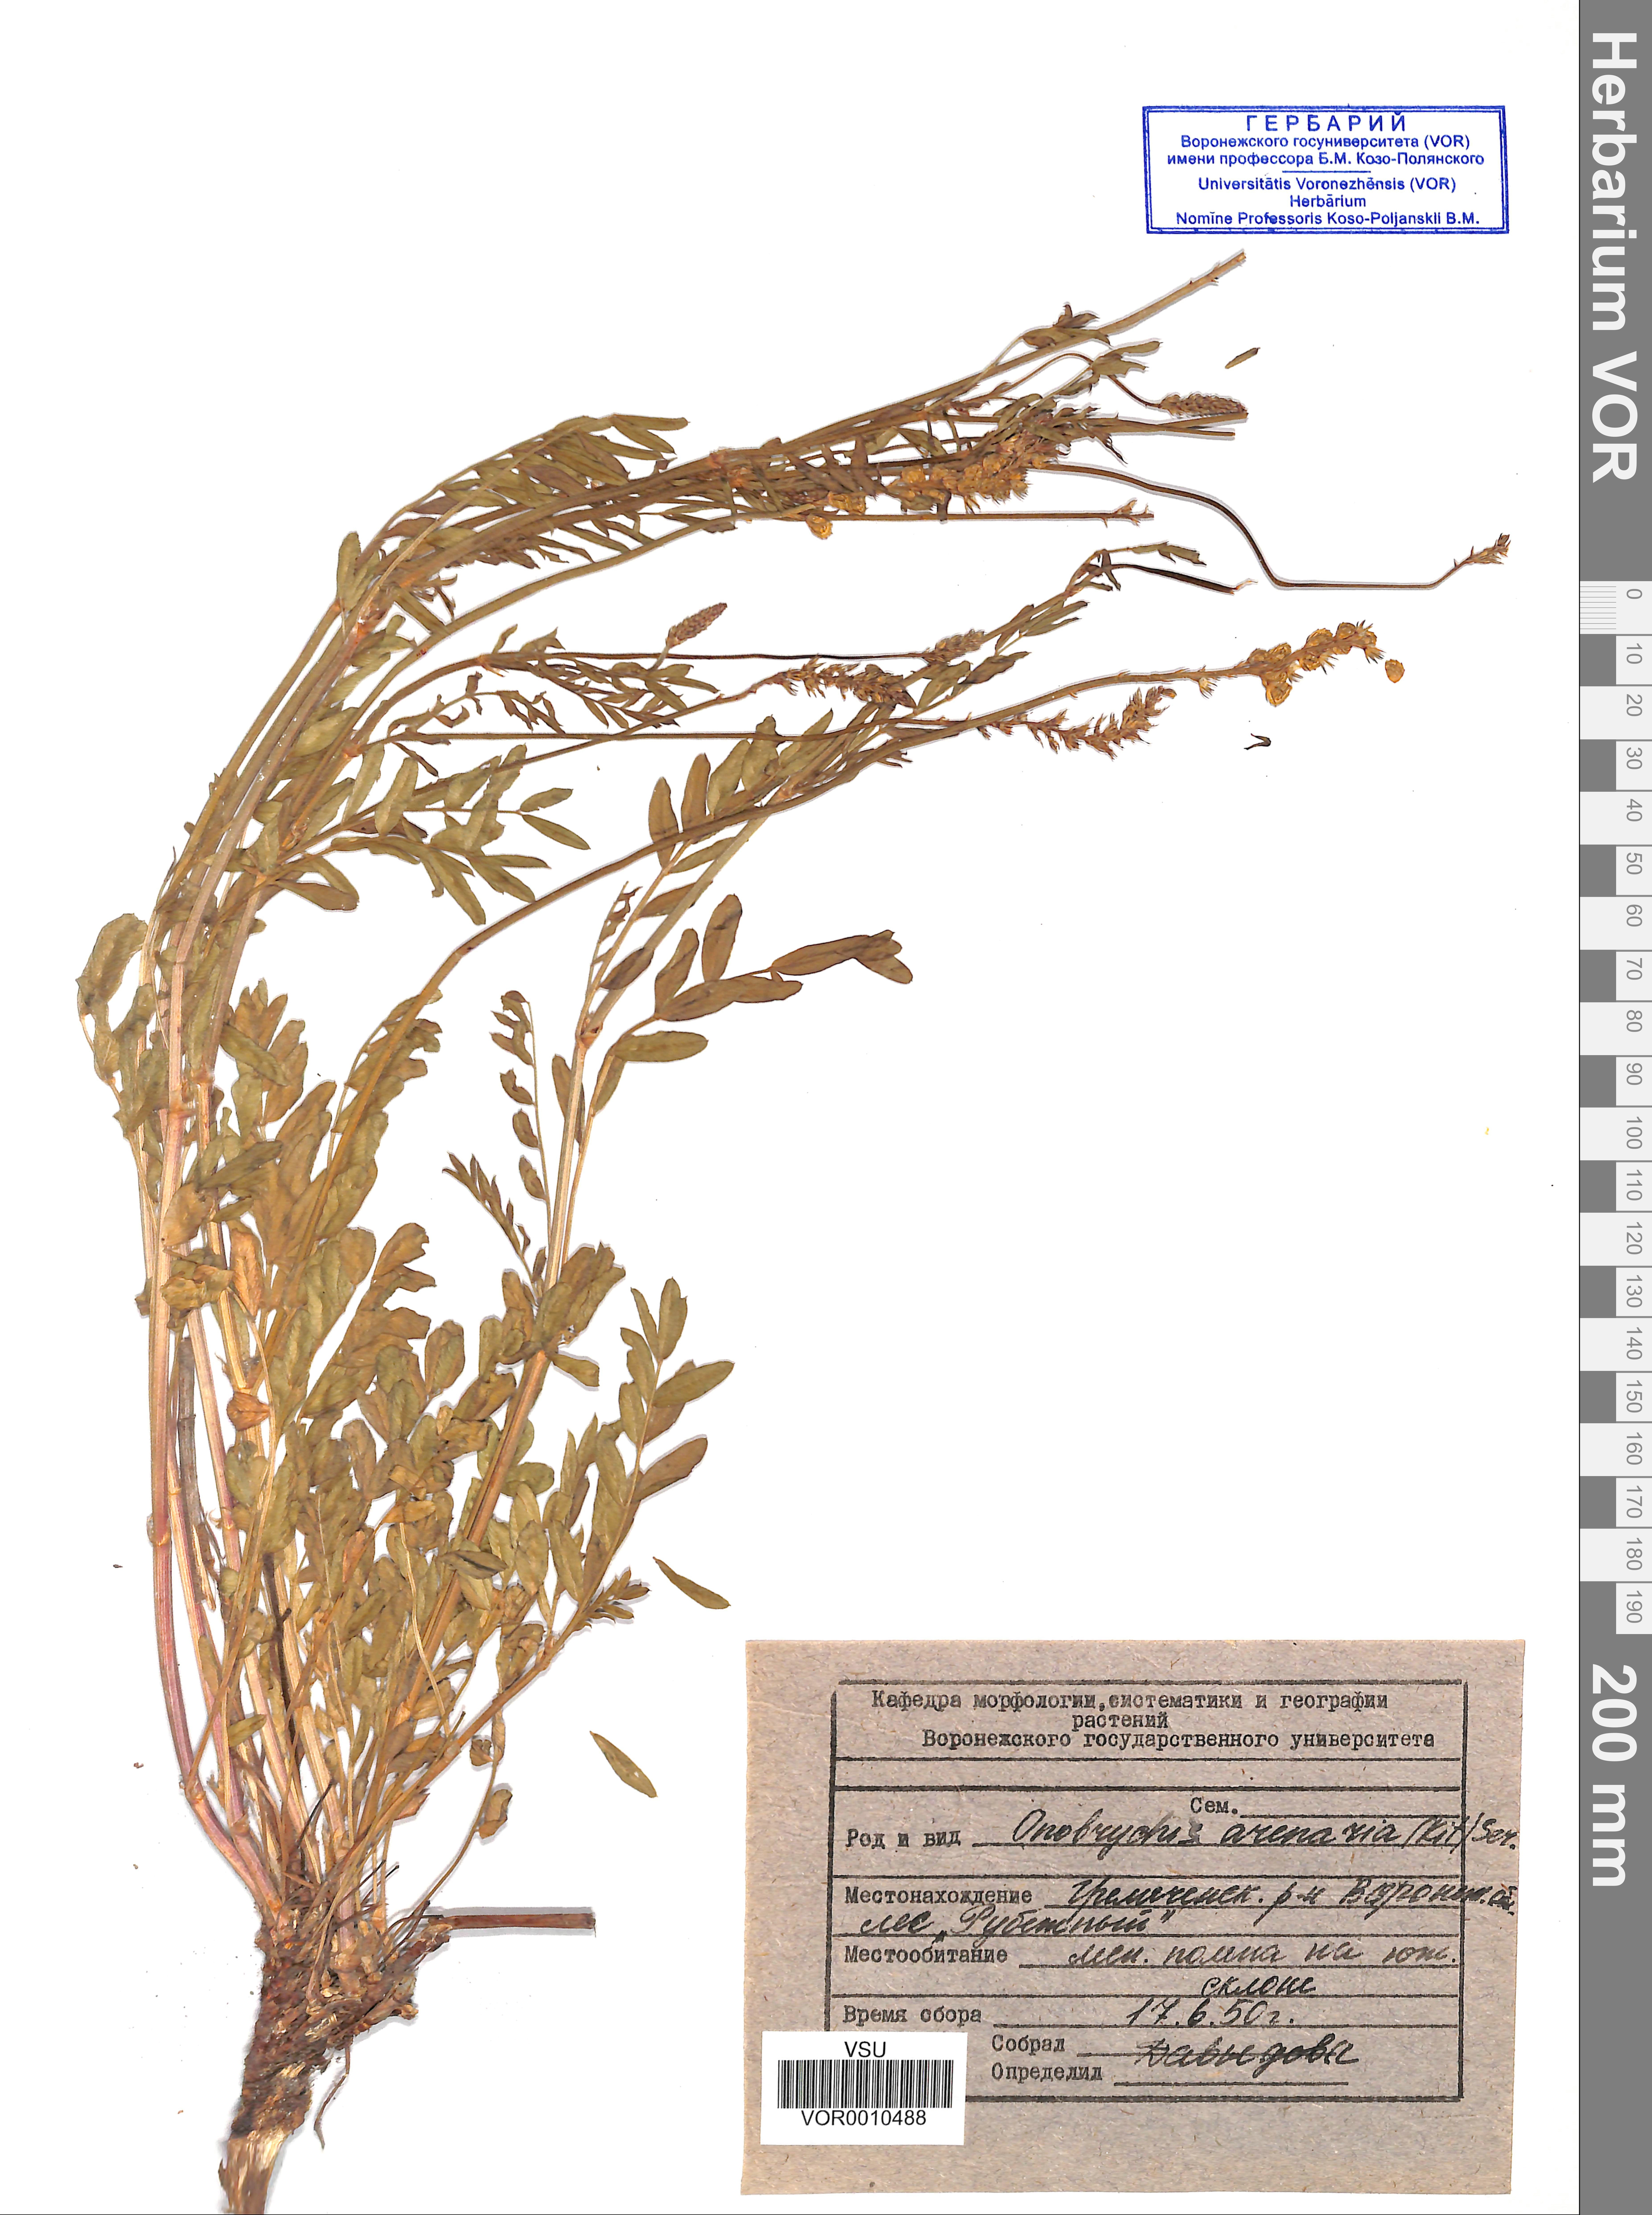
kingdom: Plantae
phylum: Tracheophyta
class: Magnoliopsida
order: Fabales
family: Fabaceae
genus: Onobrychis
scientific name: Onobrychis arenaria
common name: Sand esparcet
